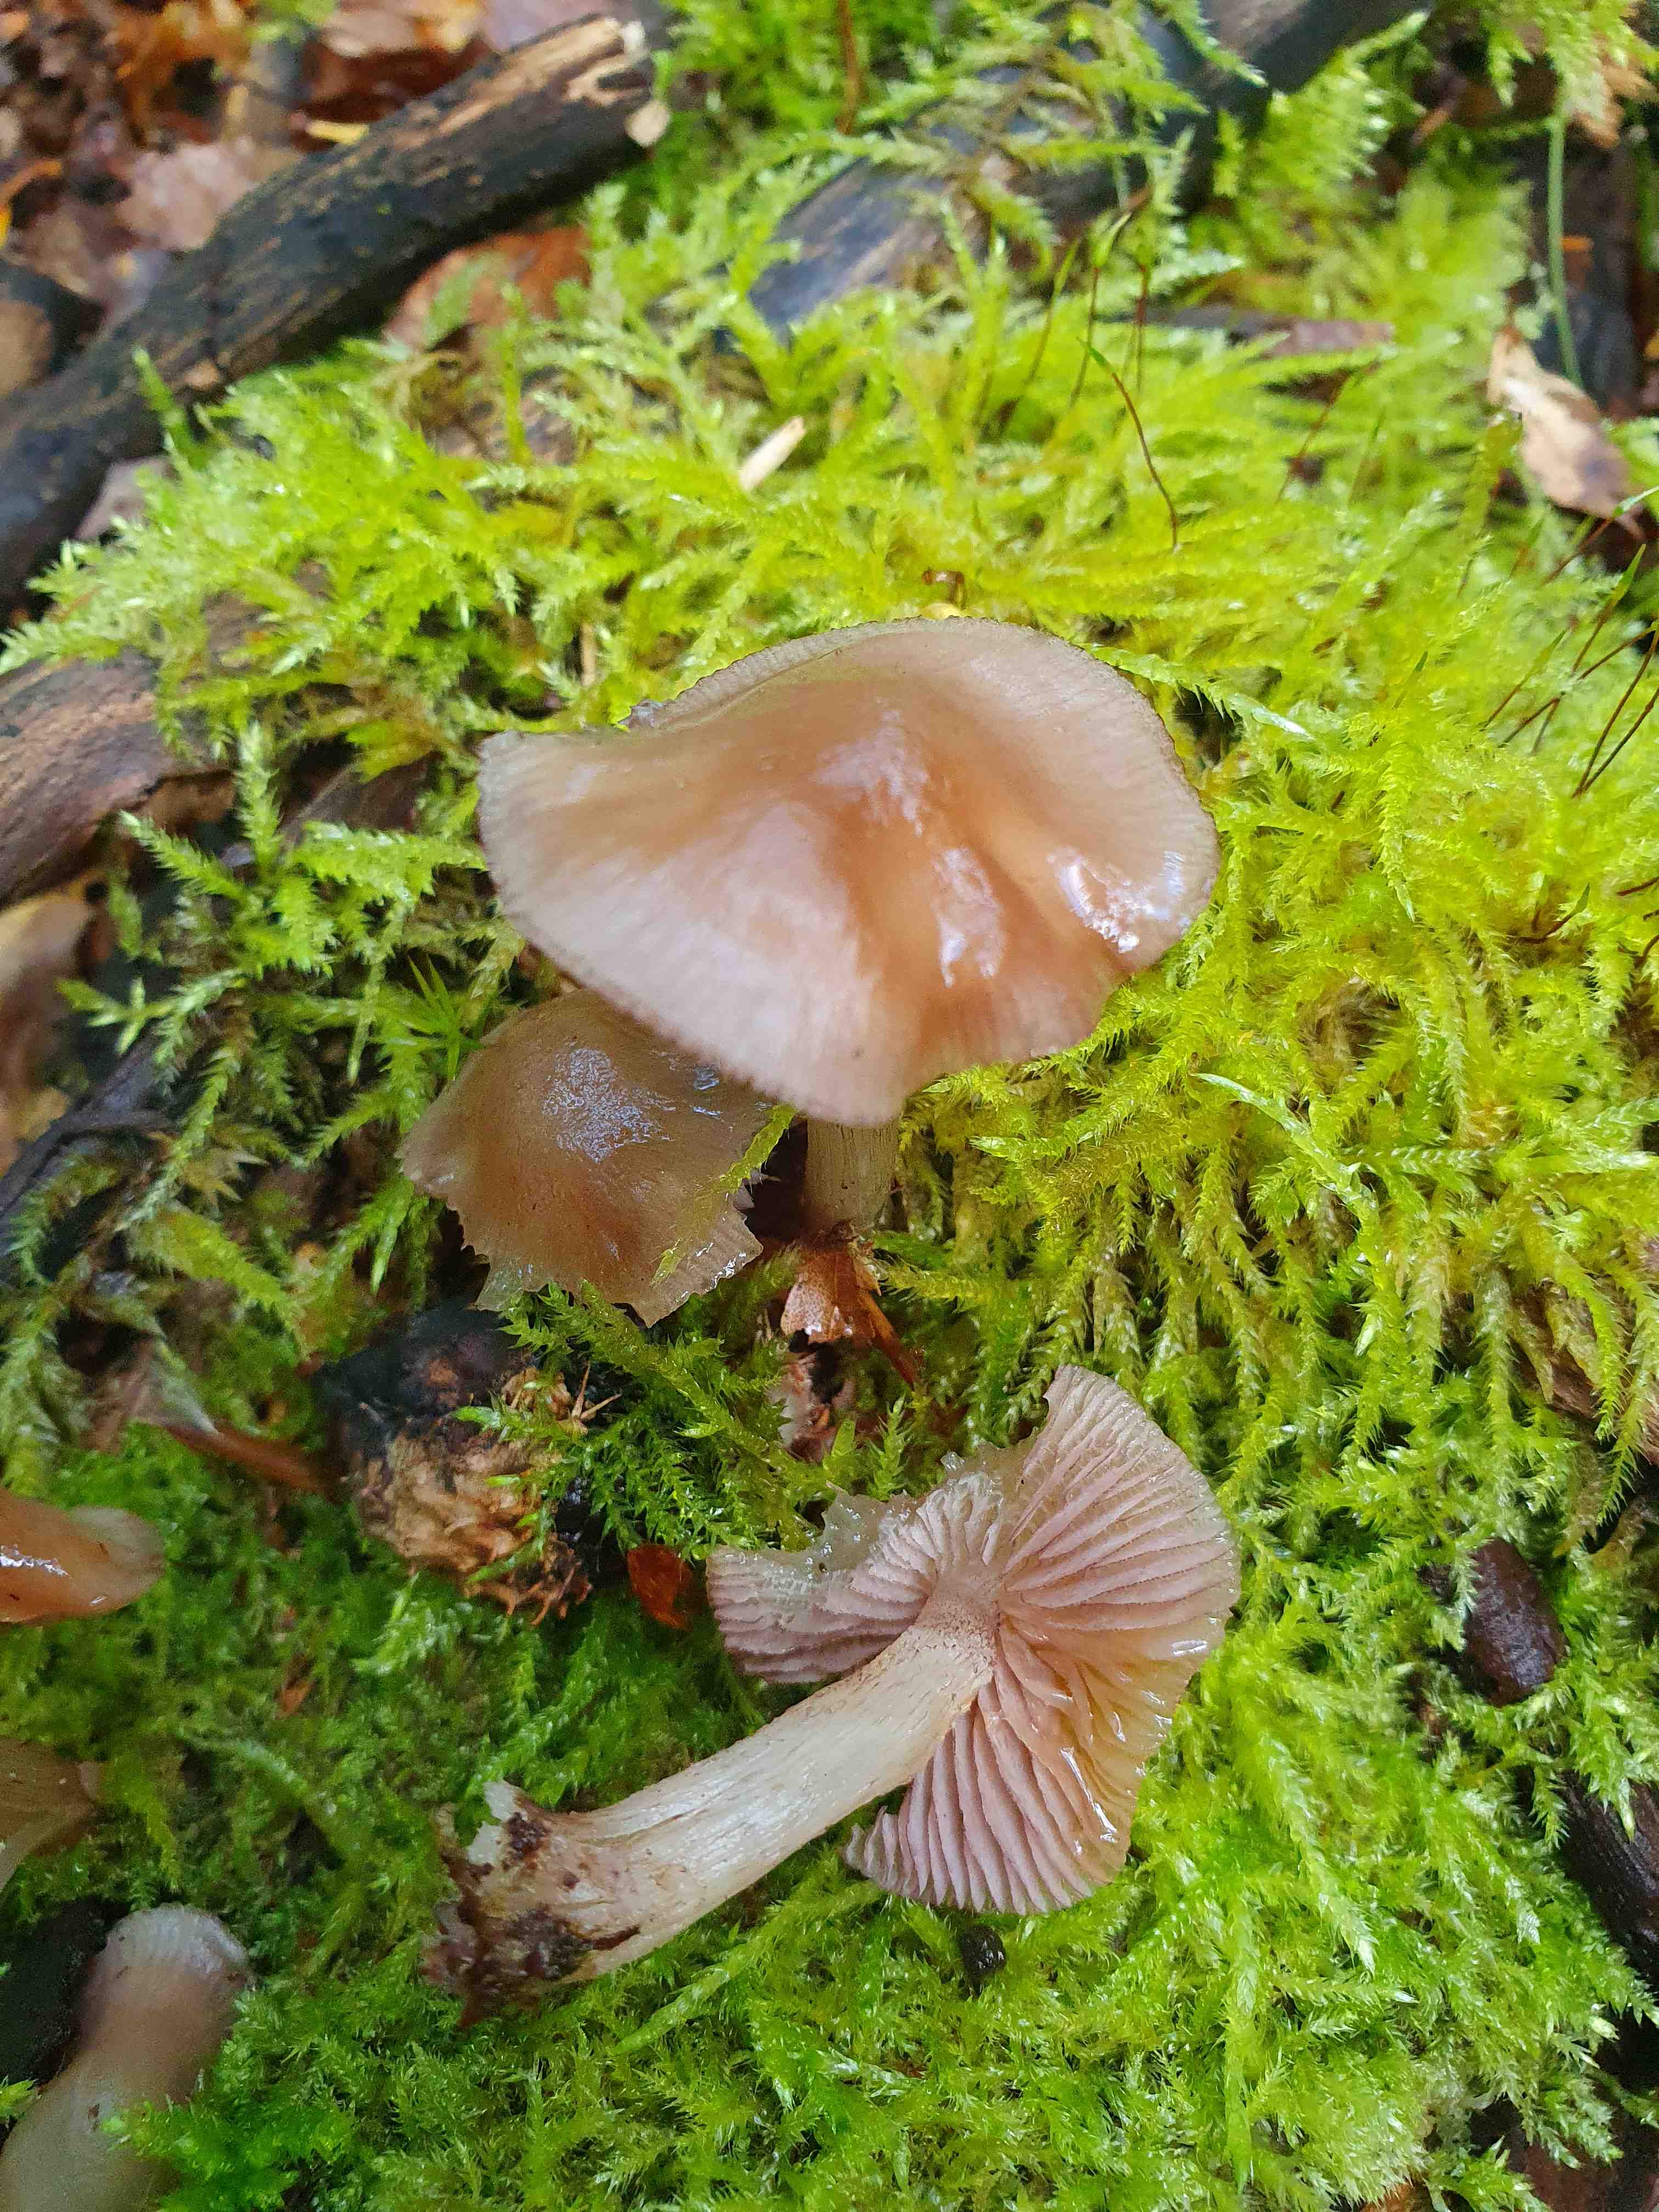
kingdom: Fungi
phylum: Basidiomycota
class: Agaricomycetes
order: Agaricales
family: Mycenaceae
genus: Mycena
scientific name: Mycena pelianthina
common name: mørkbladet huesvamp
